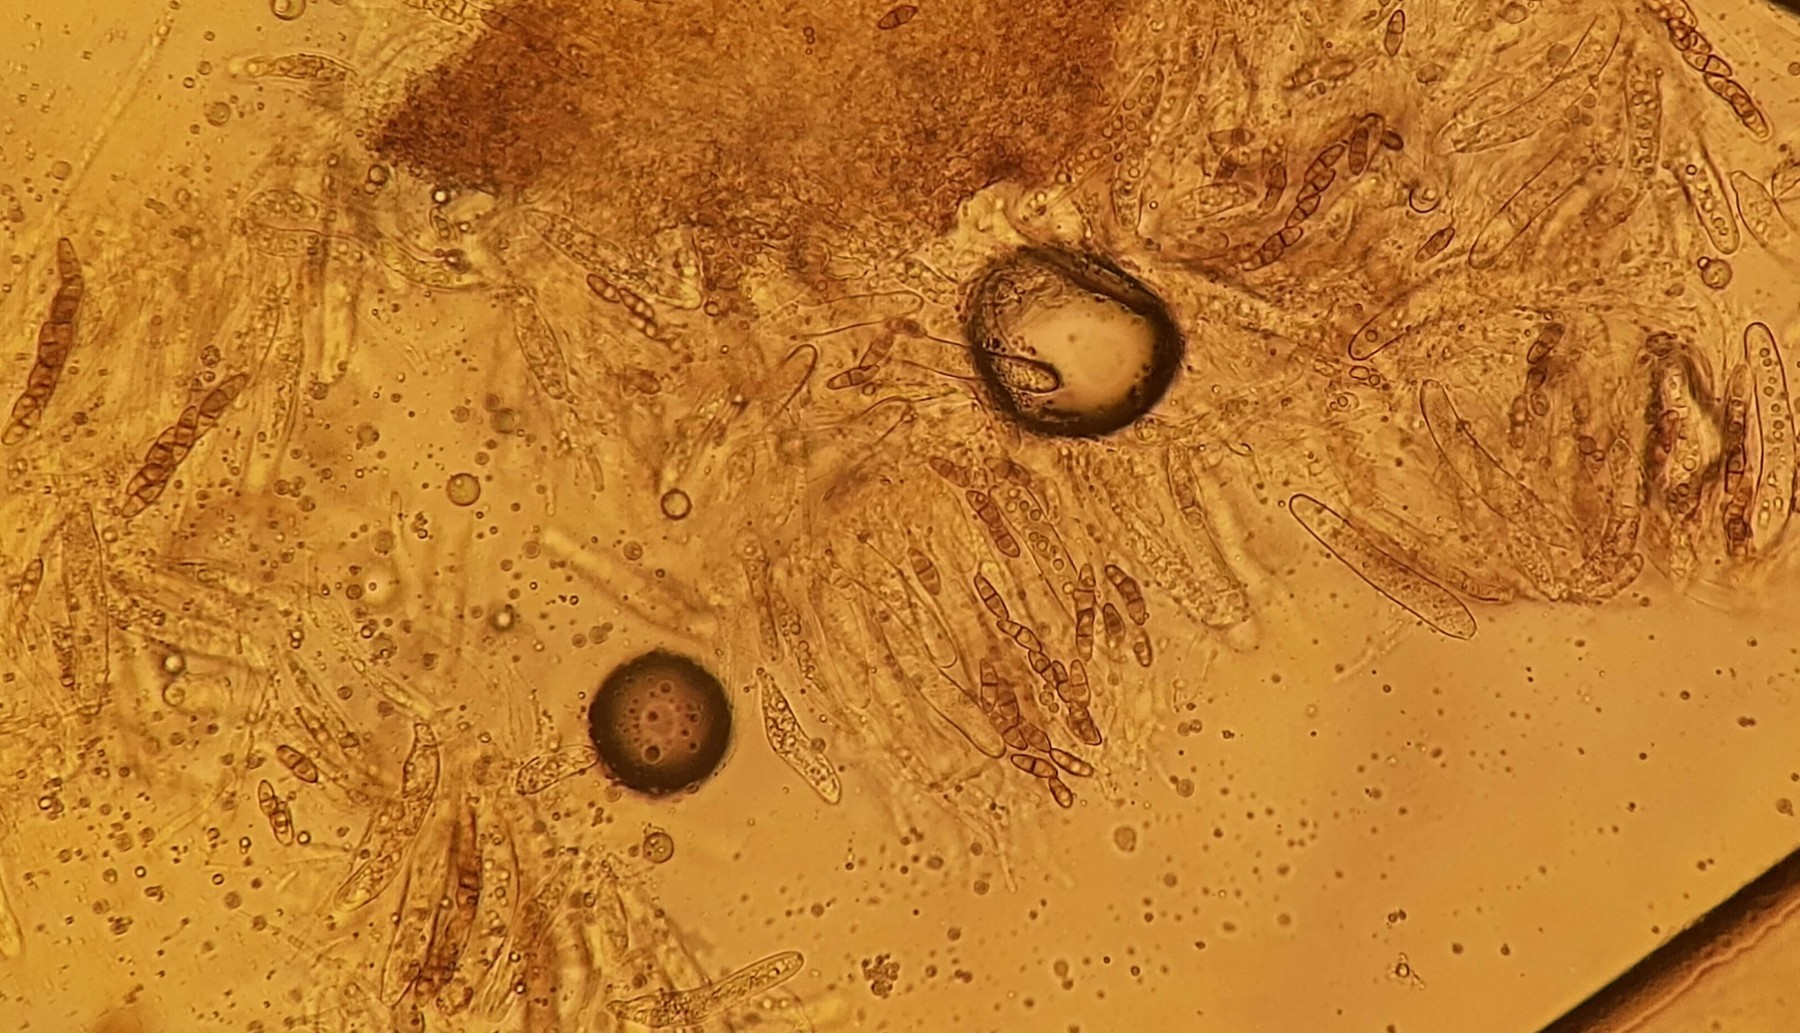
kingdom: Fungi
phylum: Ascomycota
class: Dothideomycetes
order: Pleosporales
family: Didymosphaeriaceae
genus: Letendraea
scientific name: Letendraea helminthicola
